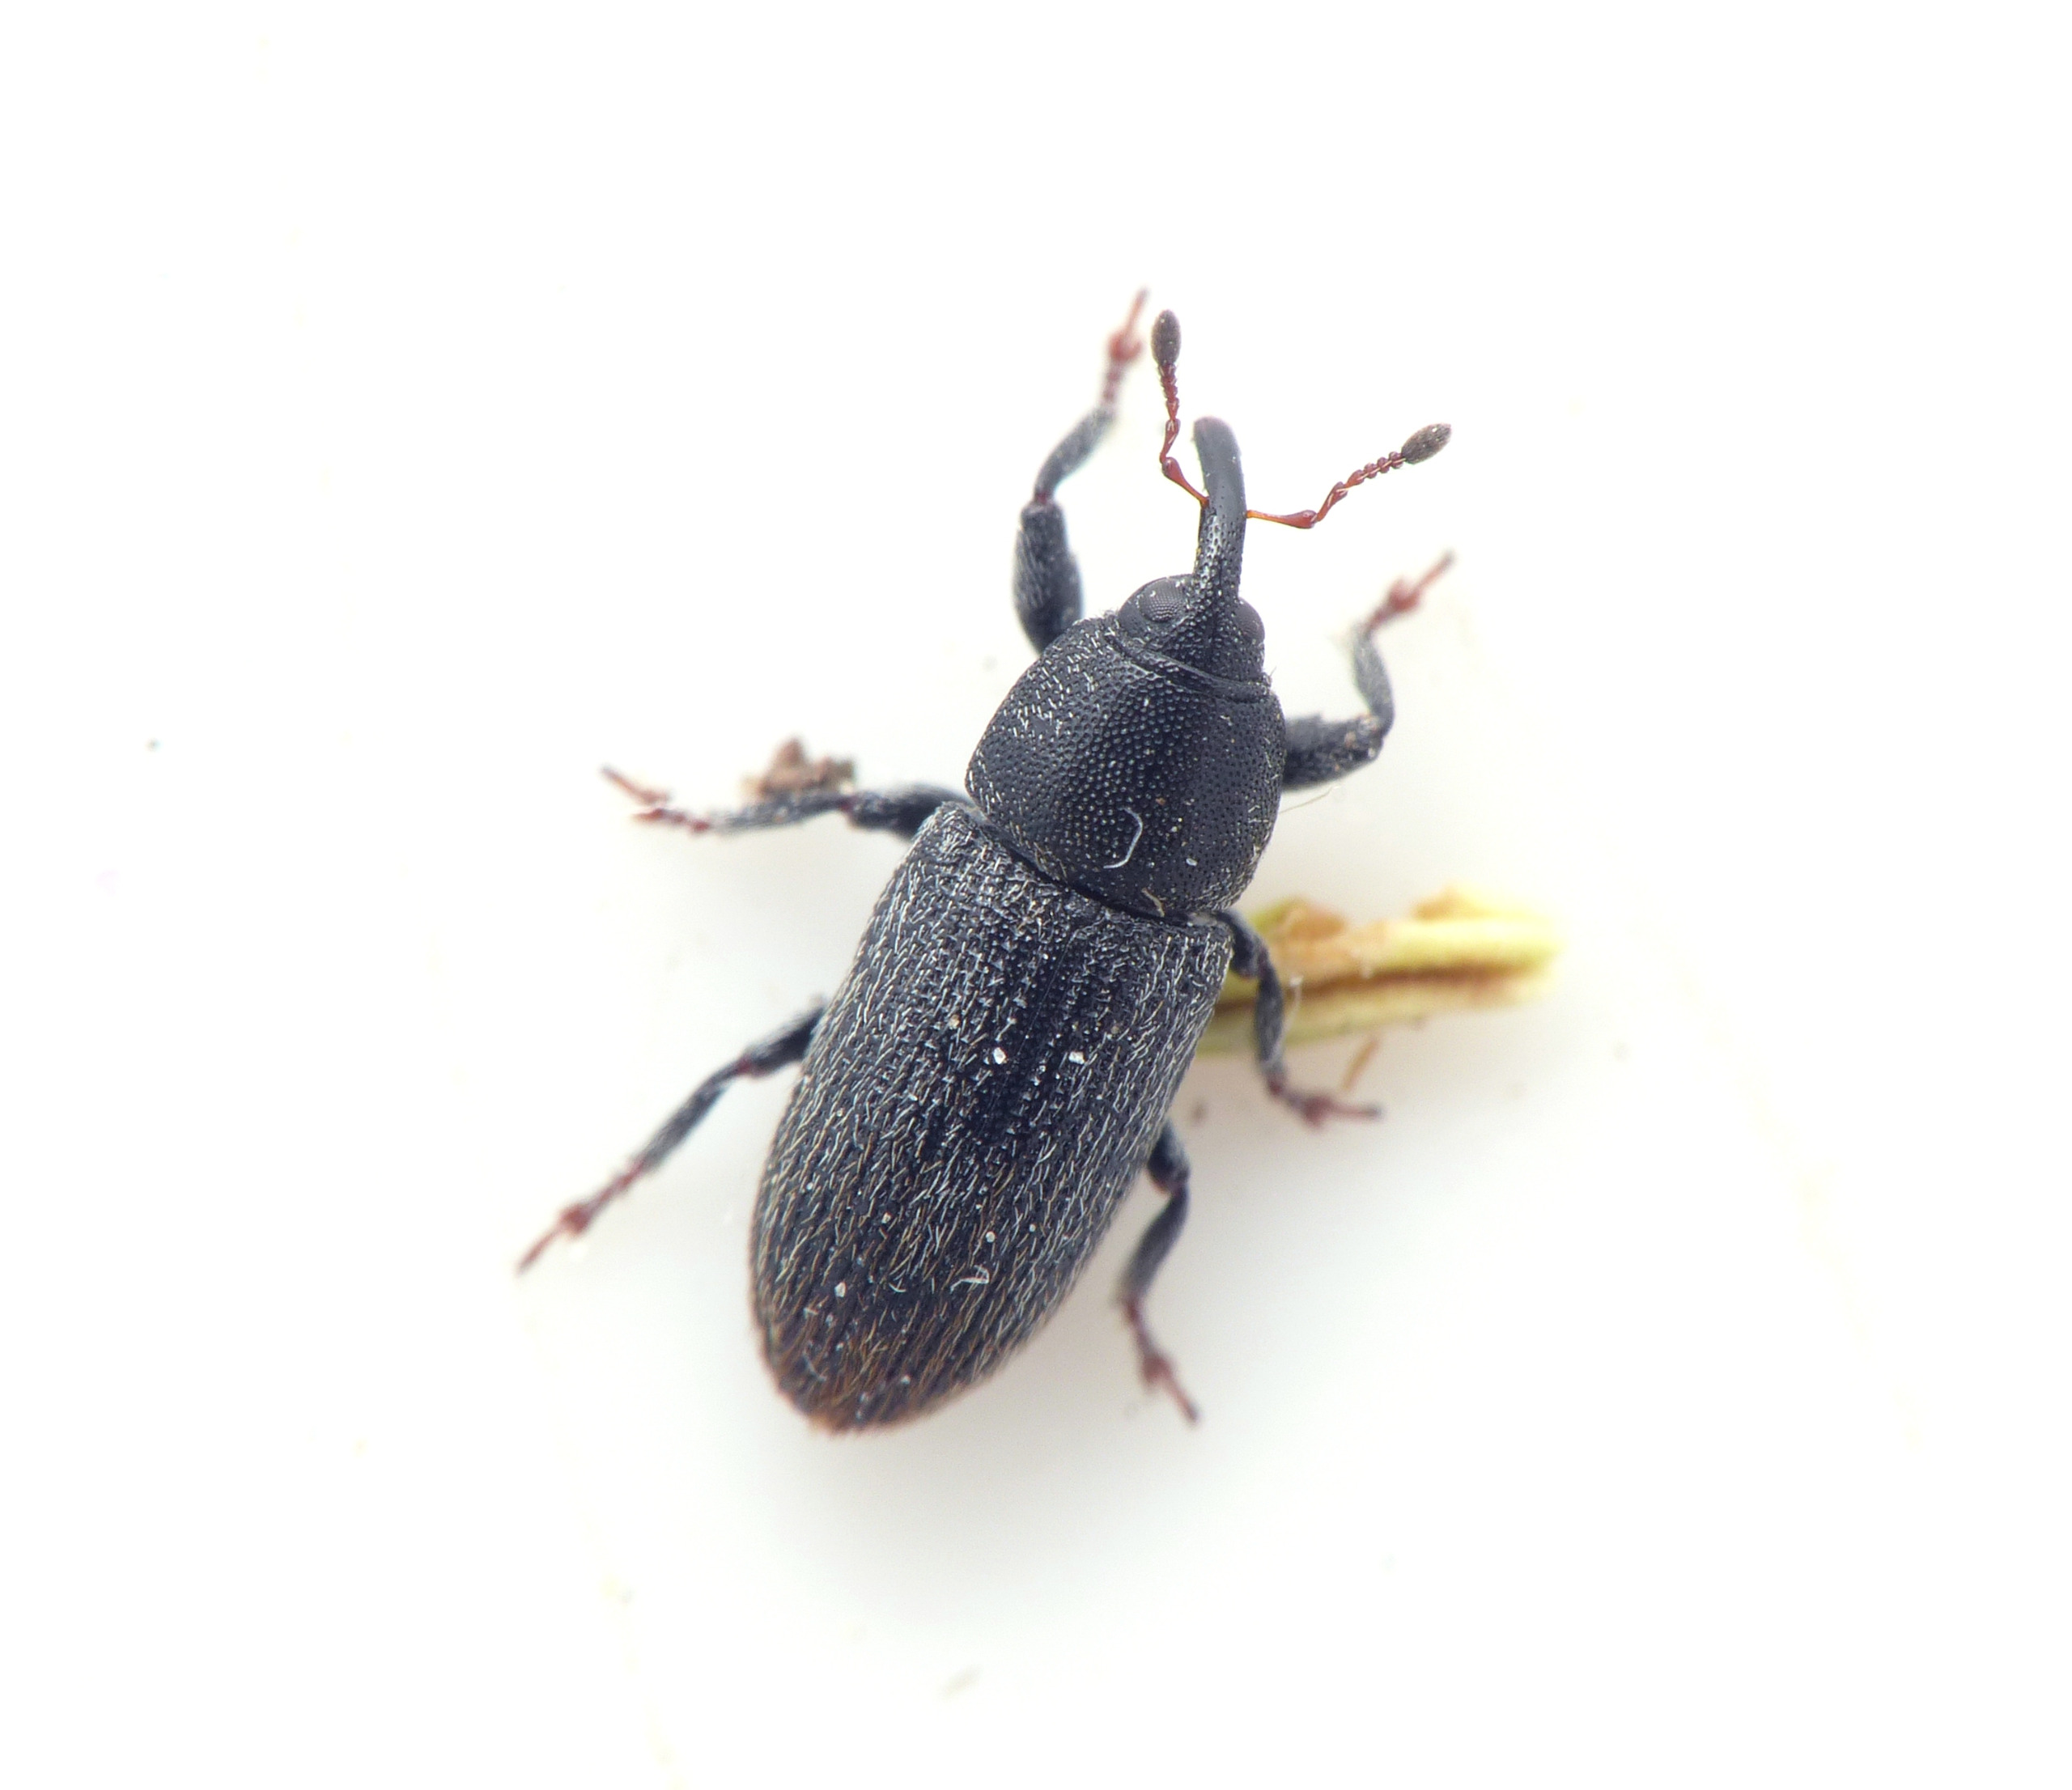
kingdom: Animalia
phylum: Arthropoda
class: Insecta
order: Coleoptera
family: Curculionidae
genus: Mecinus
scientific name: Mecinus pyraster
